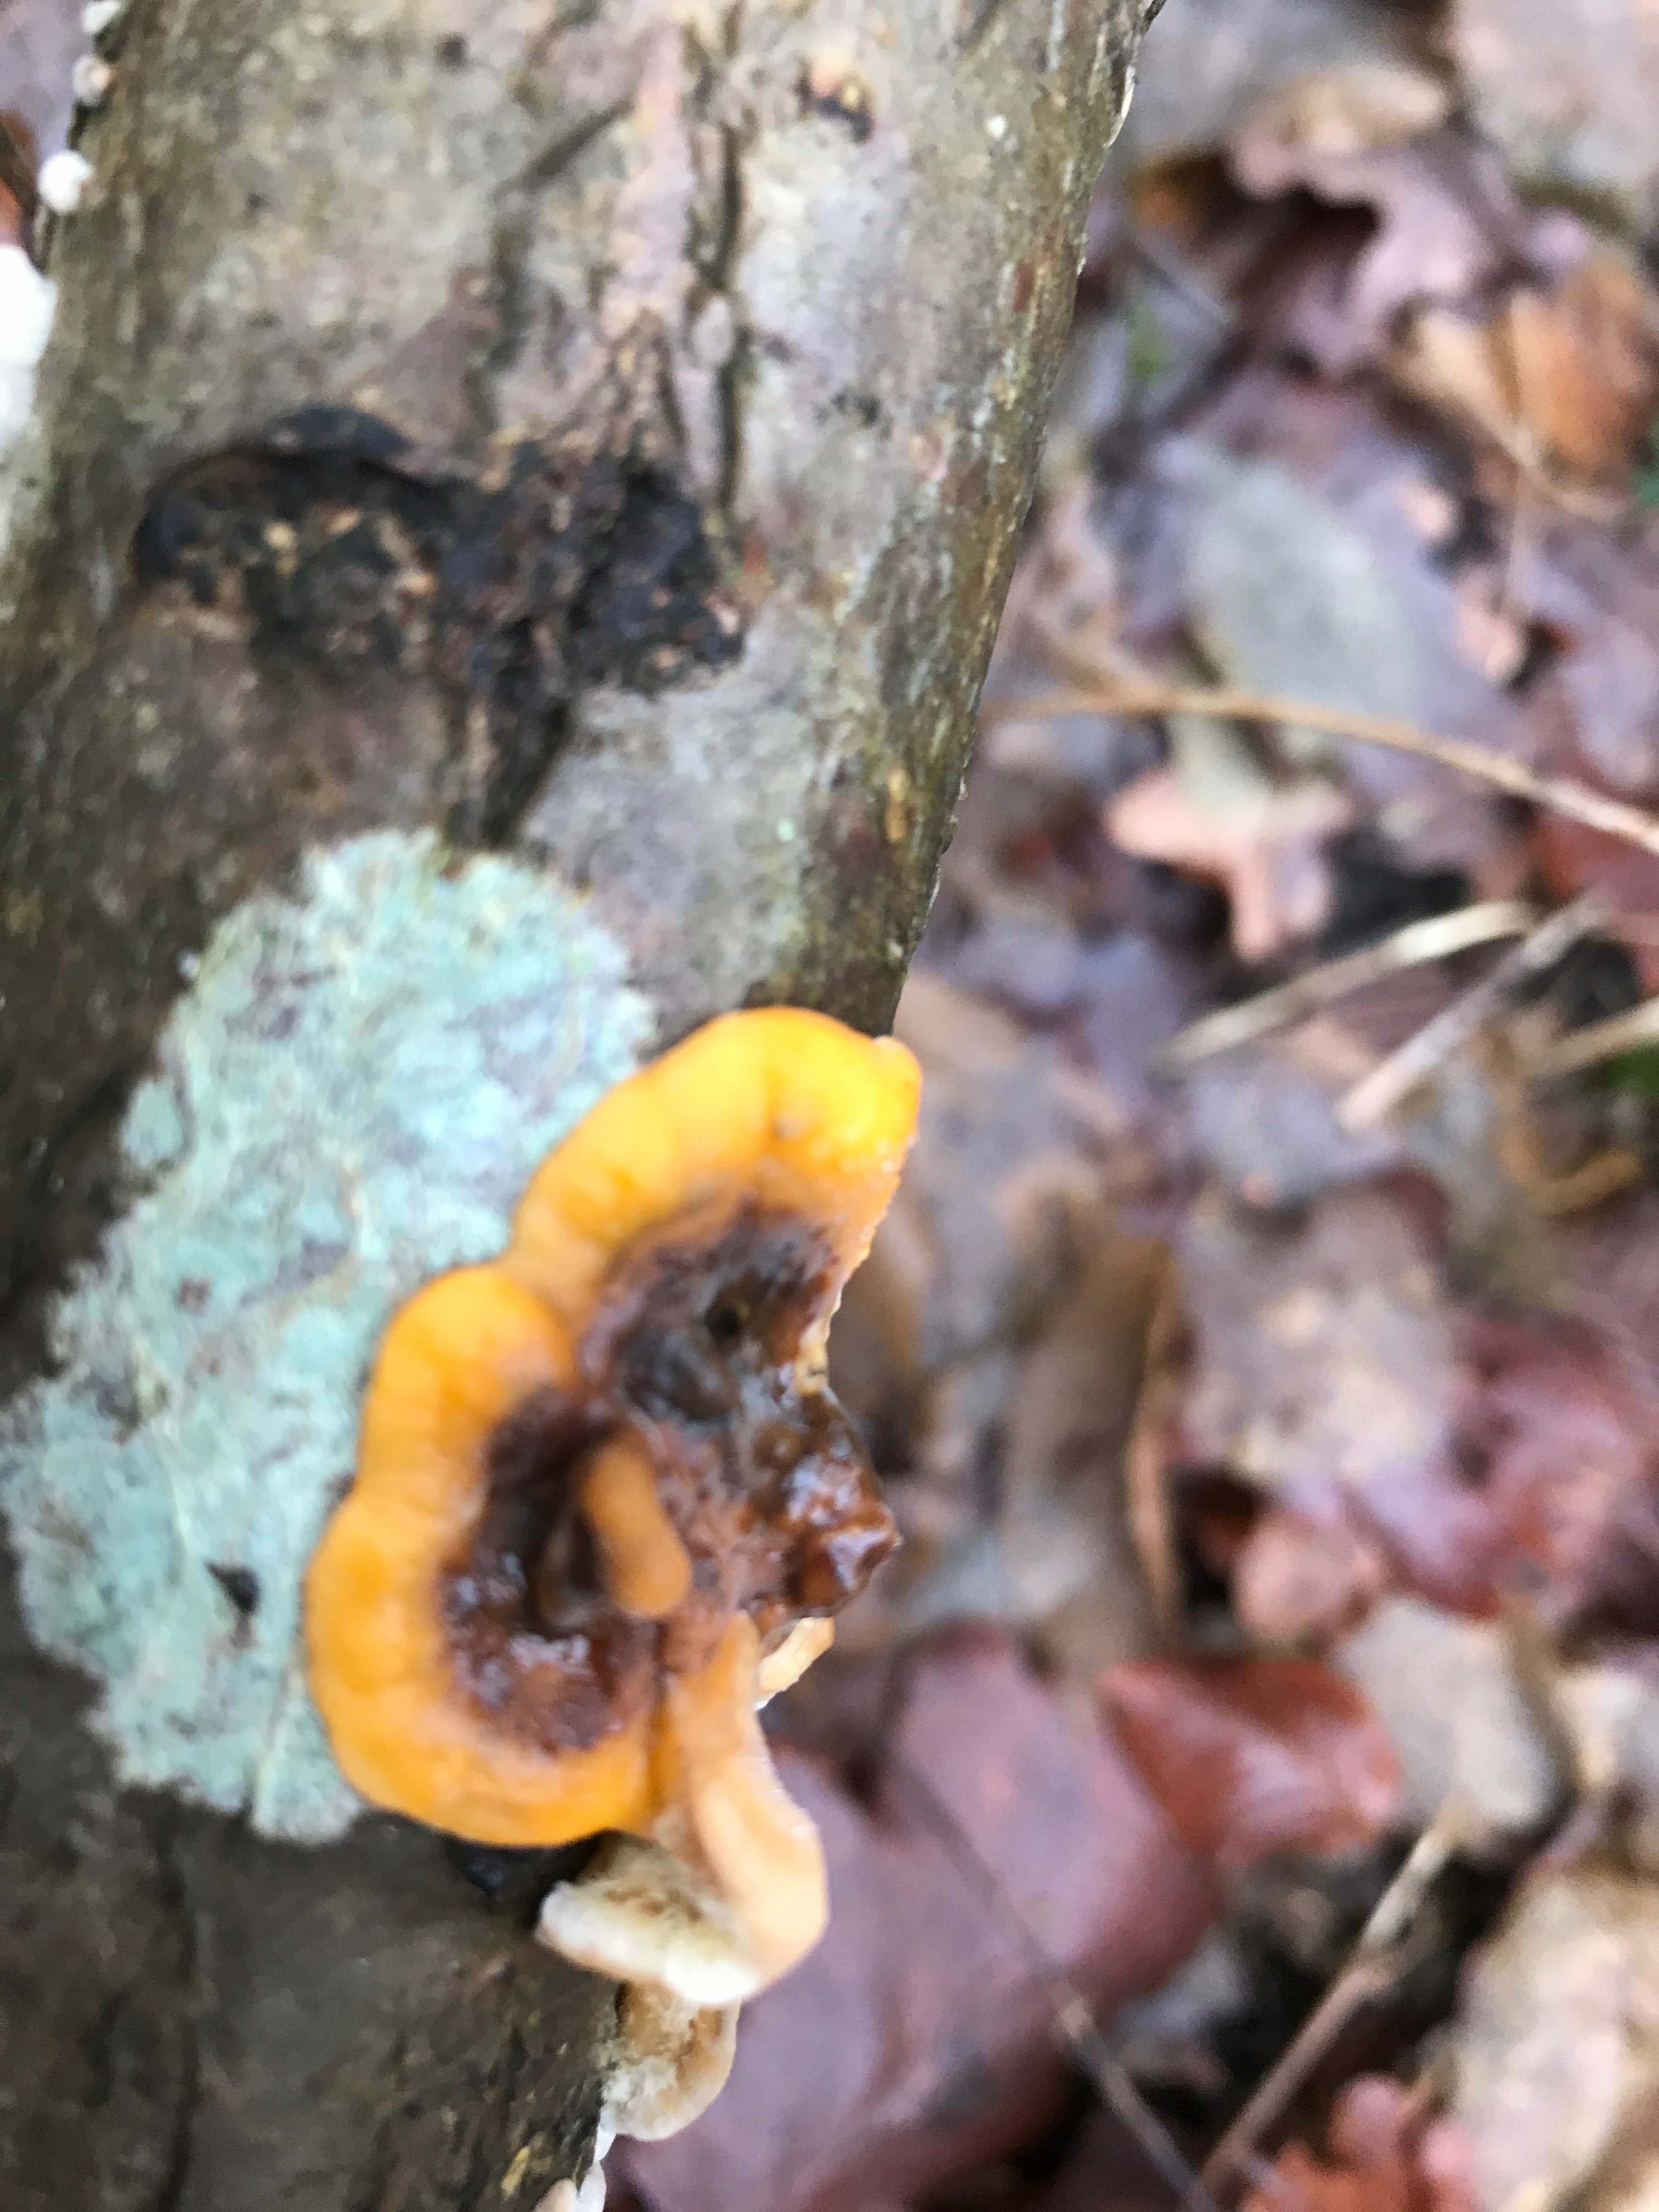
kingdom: Fungi
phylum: Basidiomycota
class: Agaricomycetes
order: Russulales
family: Stereaceae
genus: Stereum
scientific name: Stereum hirsutum
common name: håret lædersvamp
